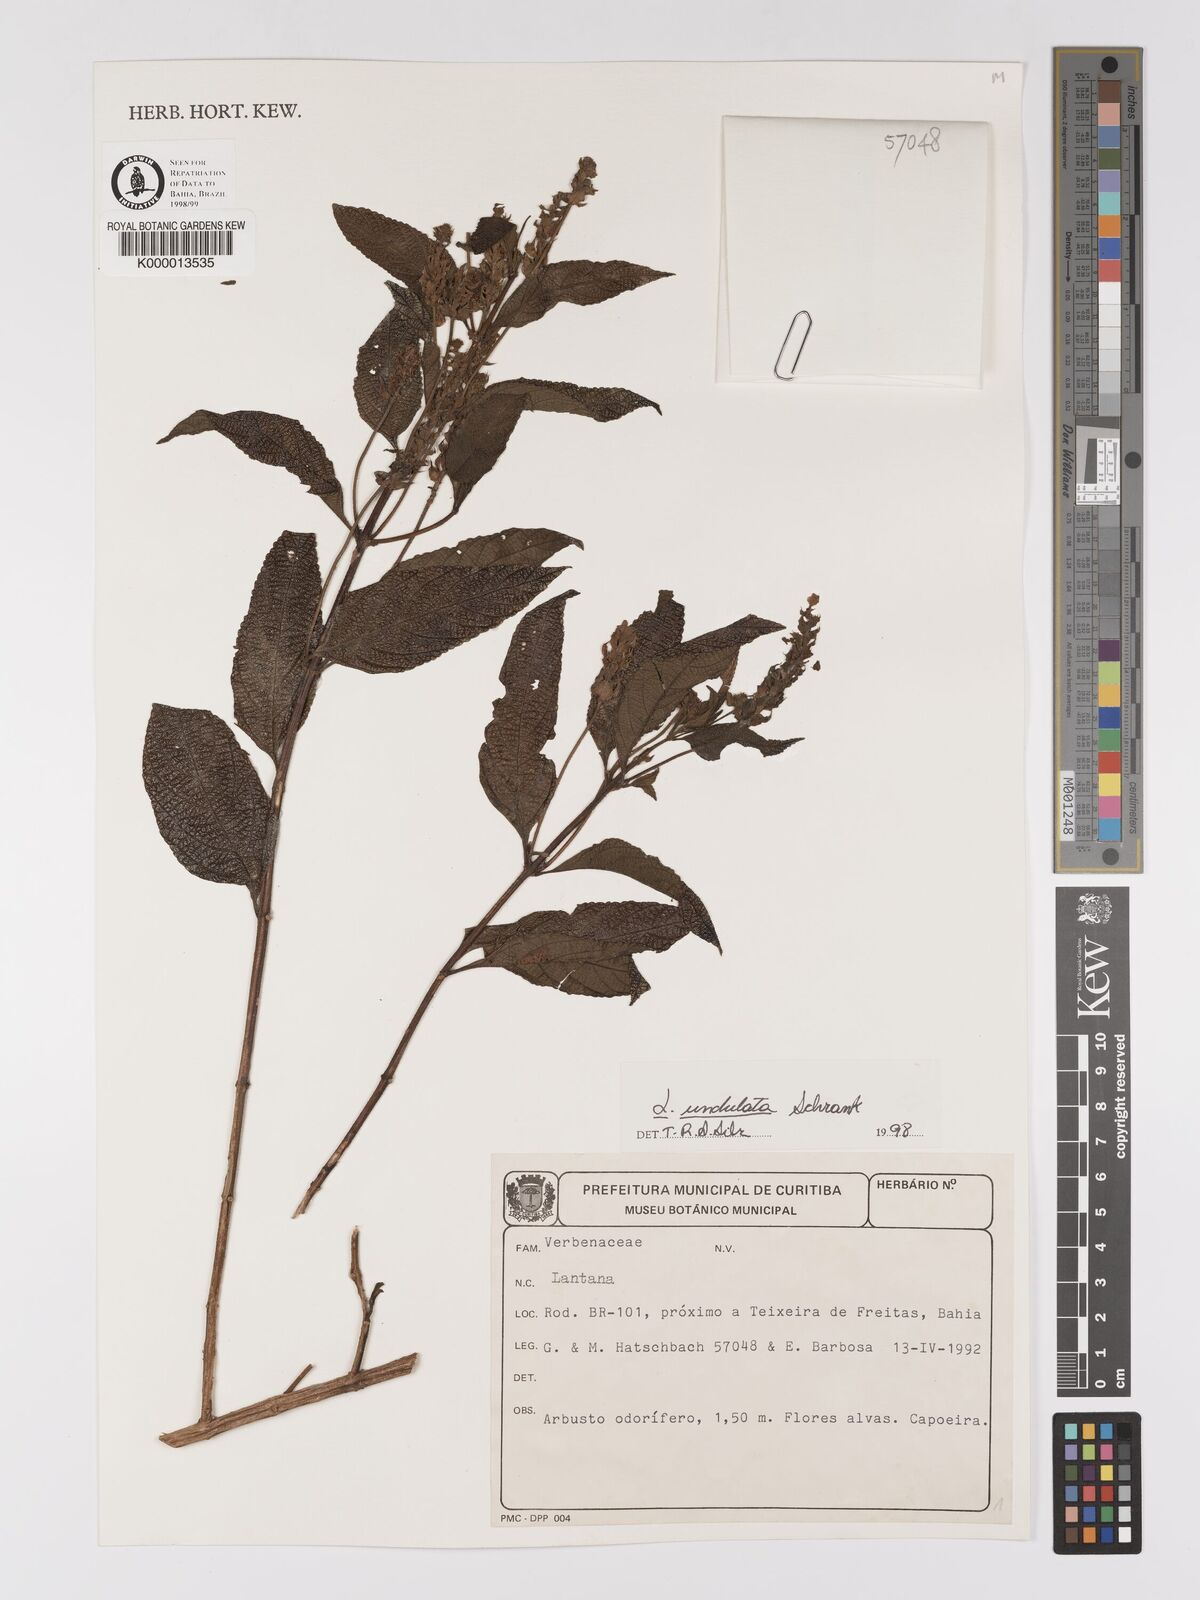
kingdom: Plantae
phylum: Tracheophyta
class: Magnoliopsida
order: Lamiales
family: Verbenaceae
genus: Lantana
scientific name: Lantana undulata
